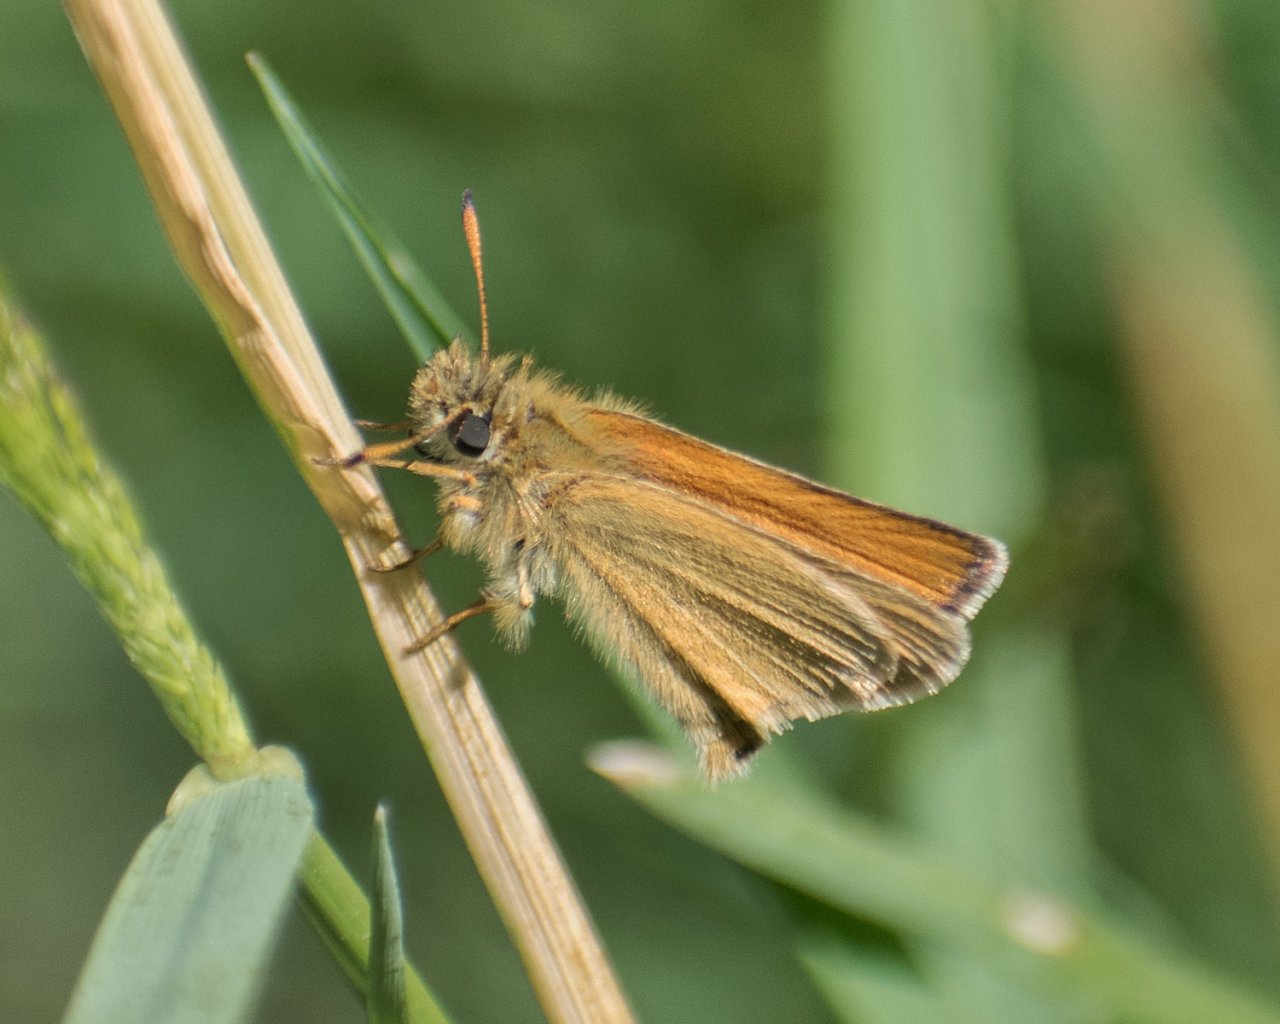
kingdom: Animalia
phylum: Arthropoda
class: Insecta
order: Lepidoptera
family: Hesperiidae
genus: Thymelicus
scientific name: Thymelicus lineola
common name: European Skipper
